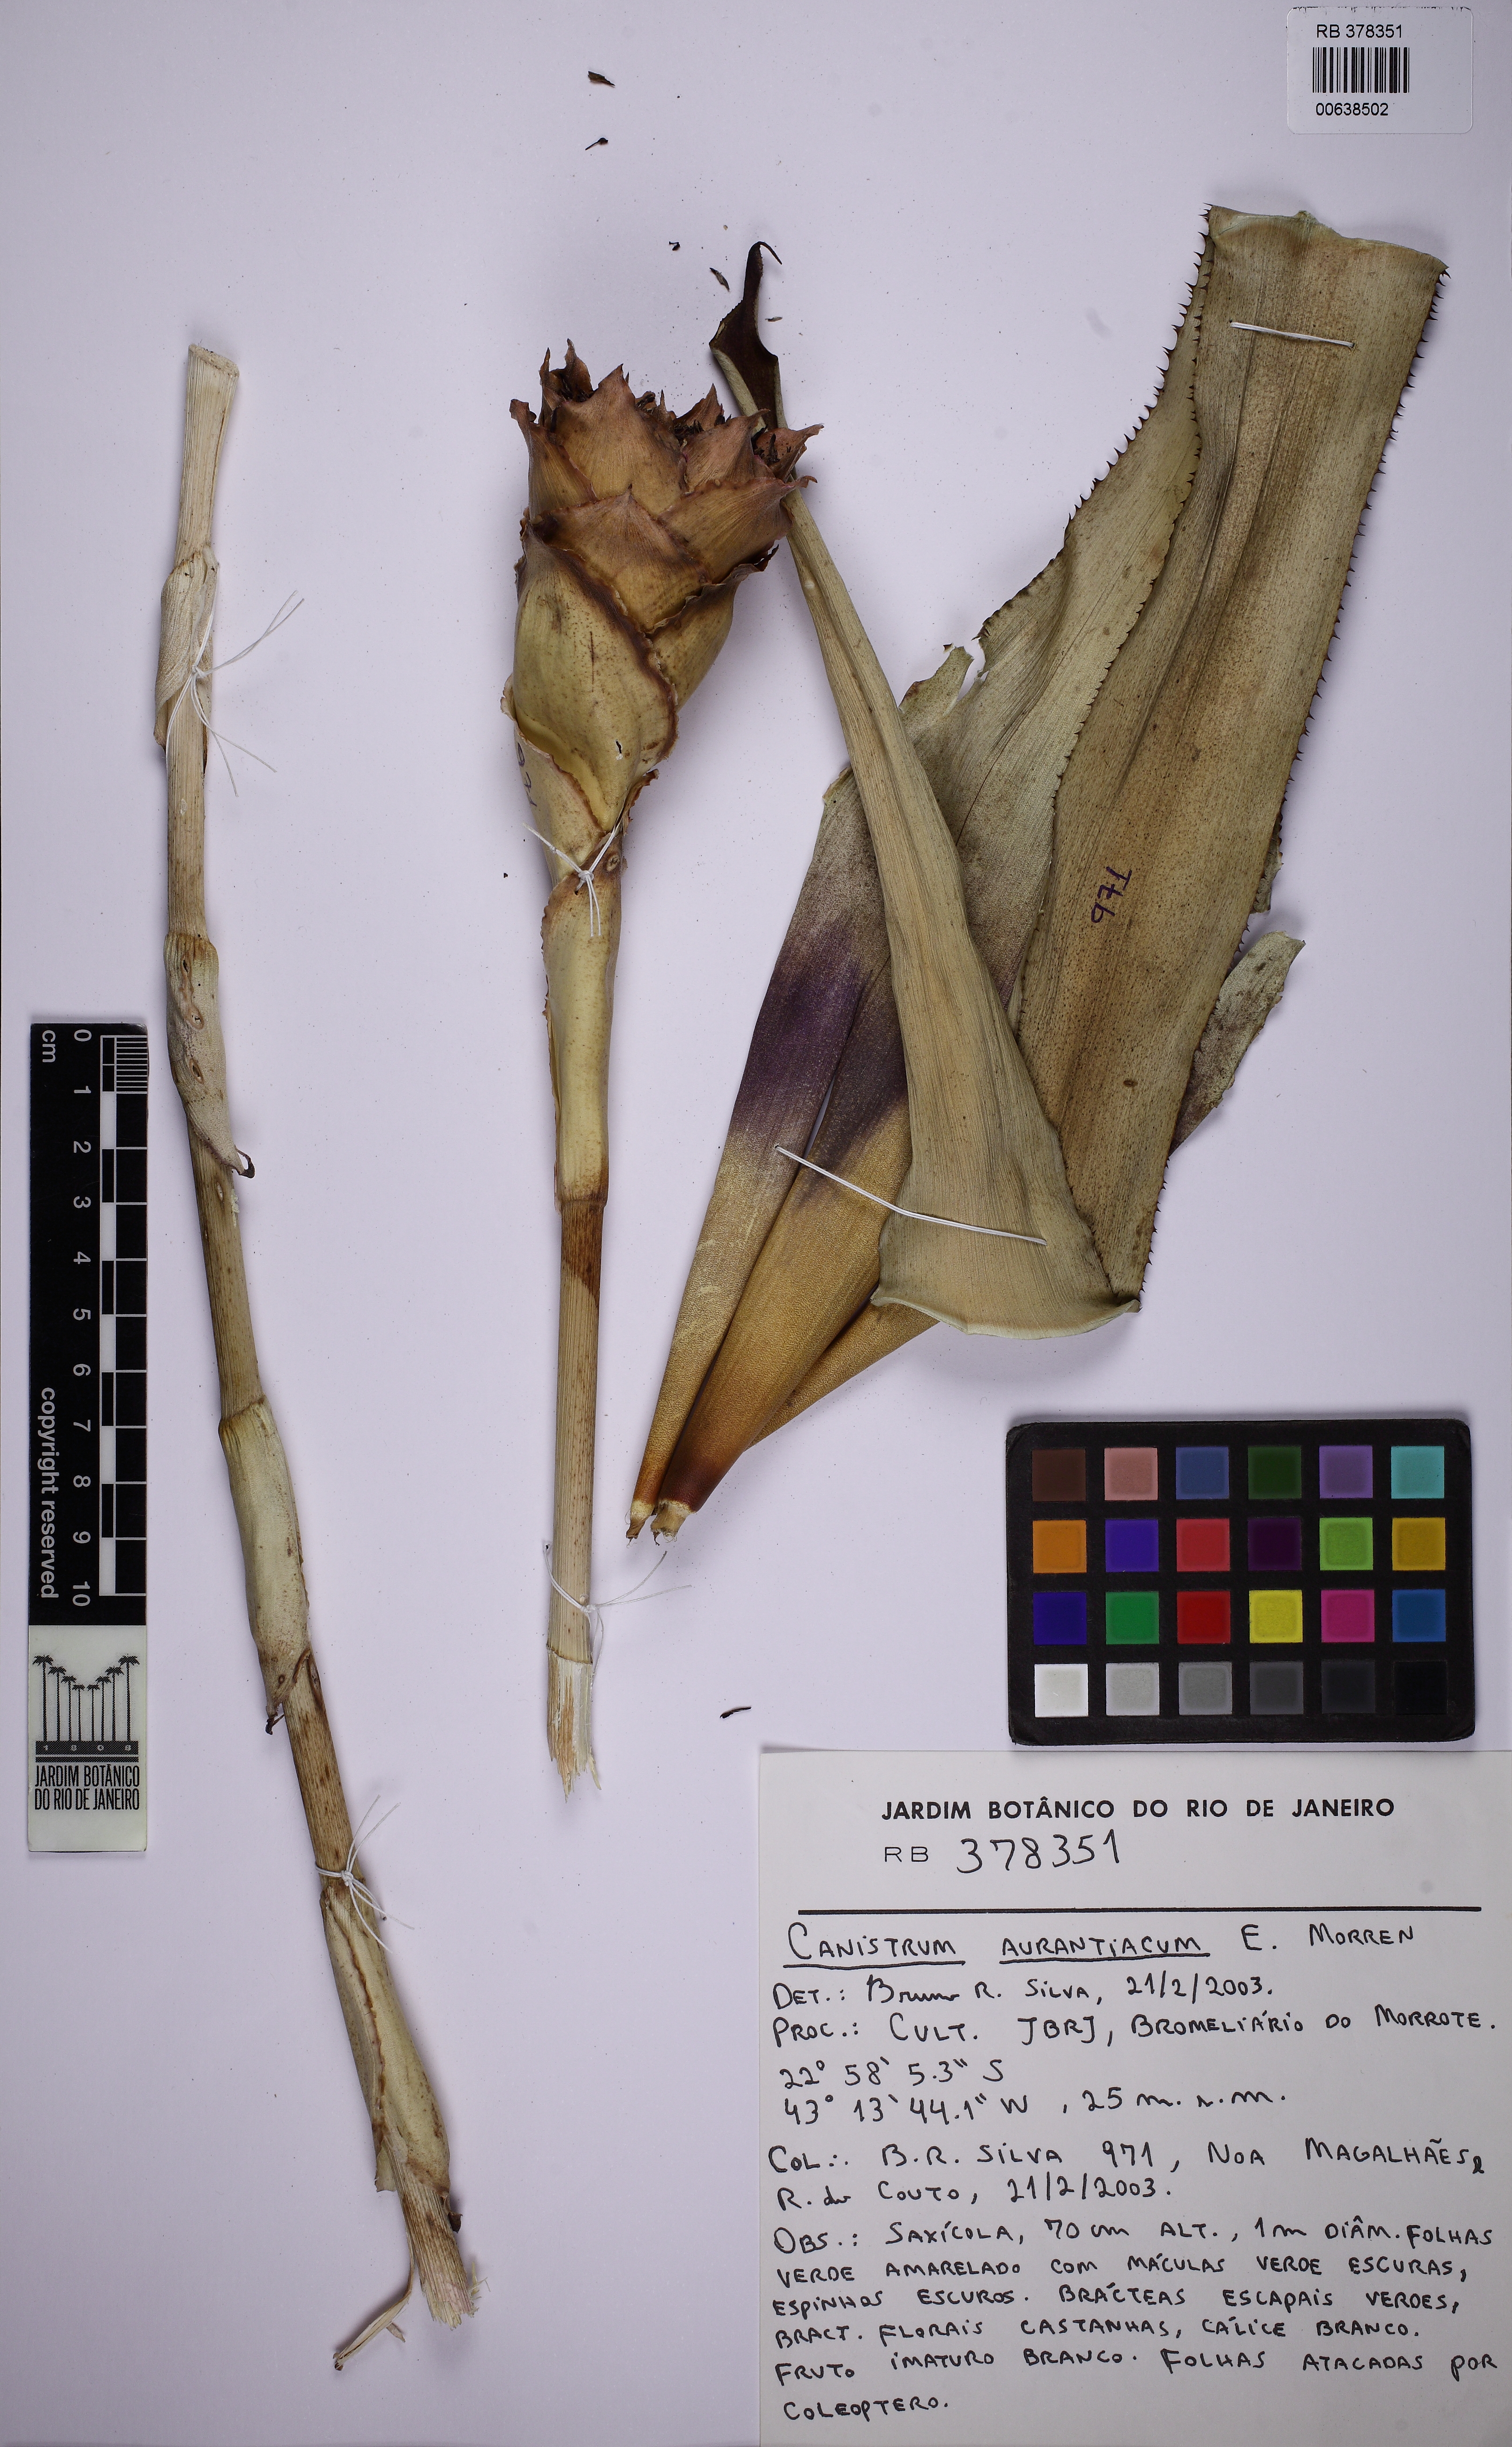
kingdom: Plantae
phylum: Tracheophyta
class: Liliopsida
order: Poales
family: Bromeliaceae
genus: Canistrum
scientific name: Canistrum
